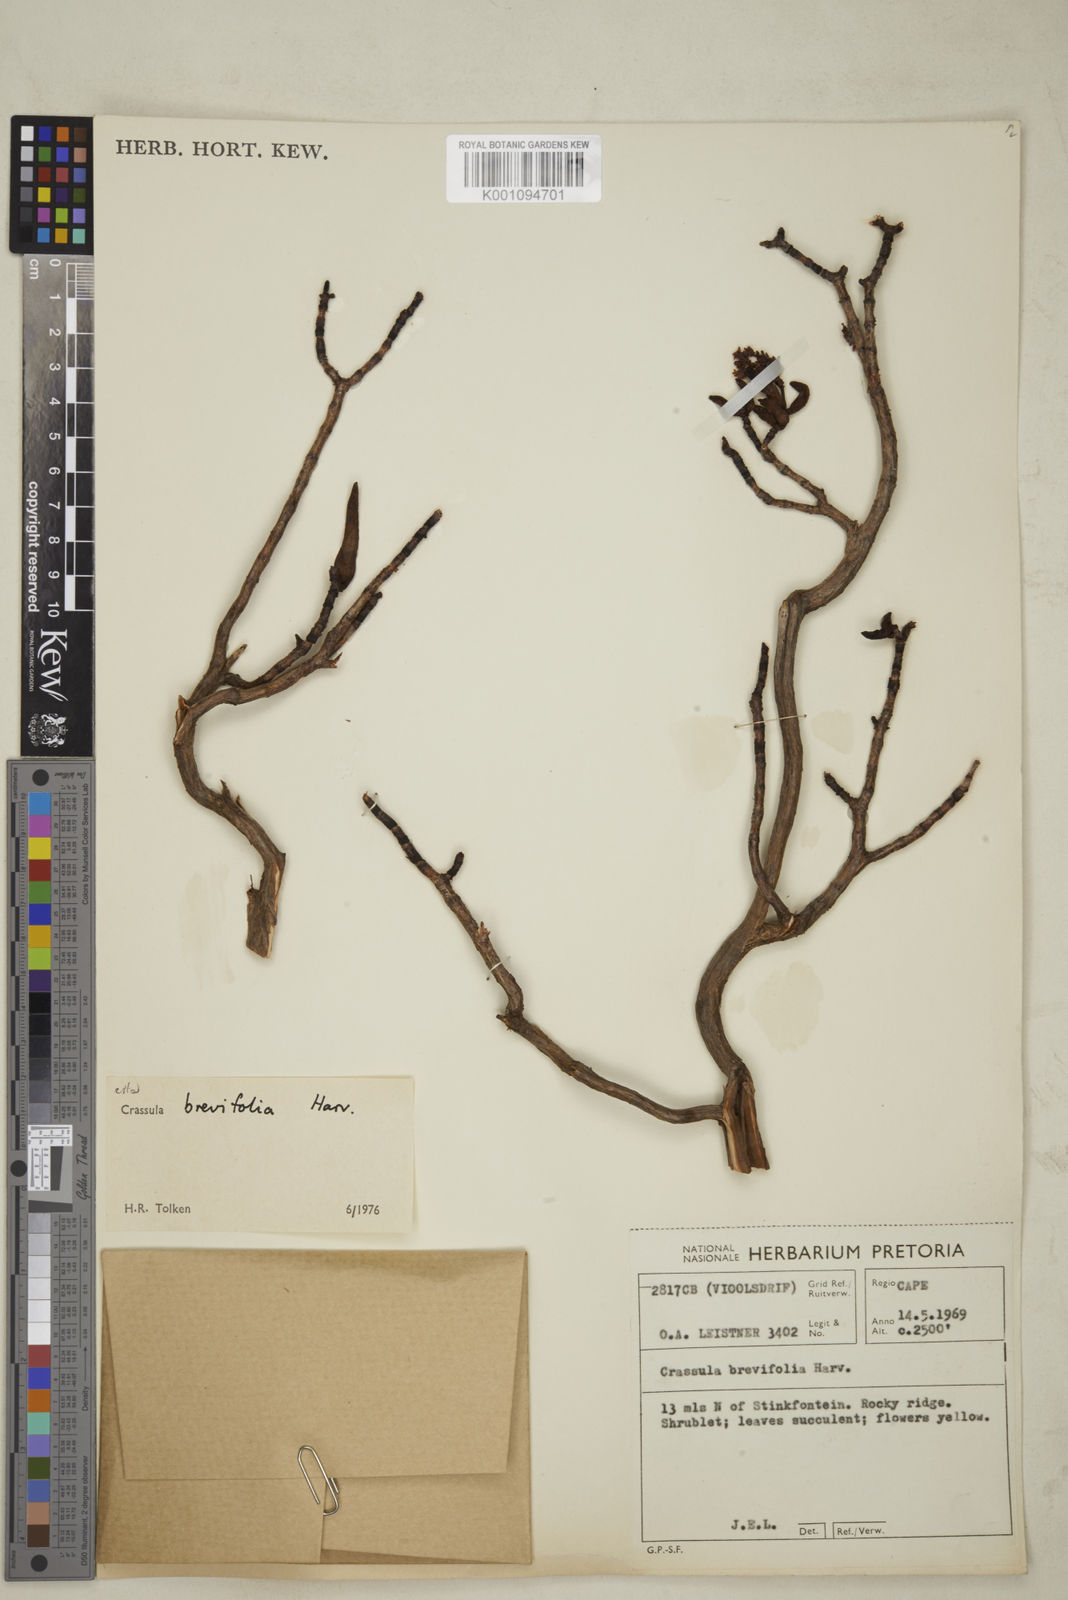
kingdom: Plantae
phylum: Tracheophyta
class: Magnoliopsida
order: Saxifragales
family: Crassulaceae
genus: Crassula
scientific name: Crassula brevifolia
